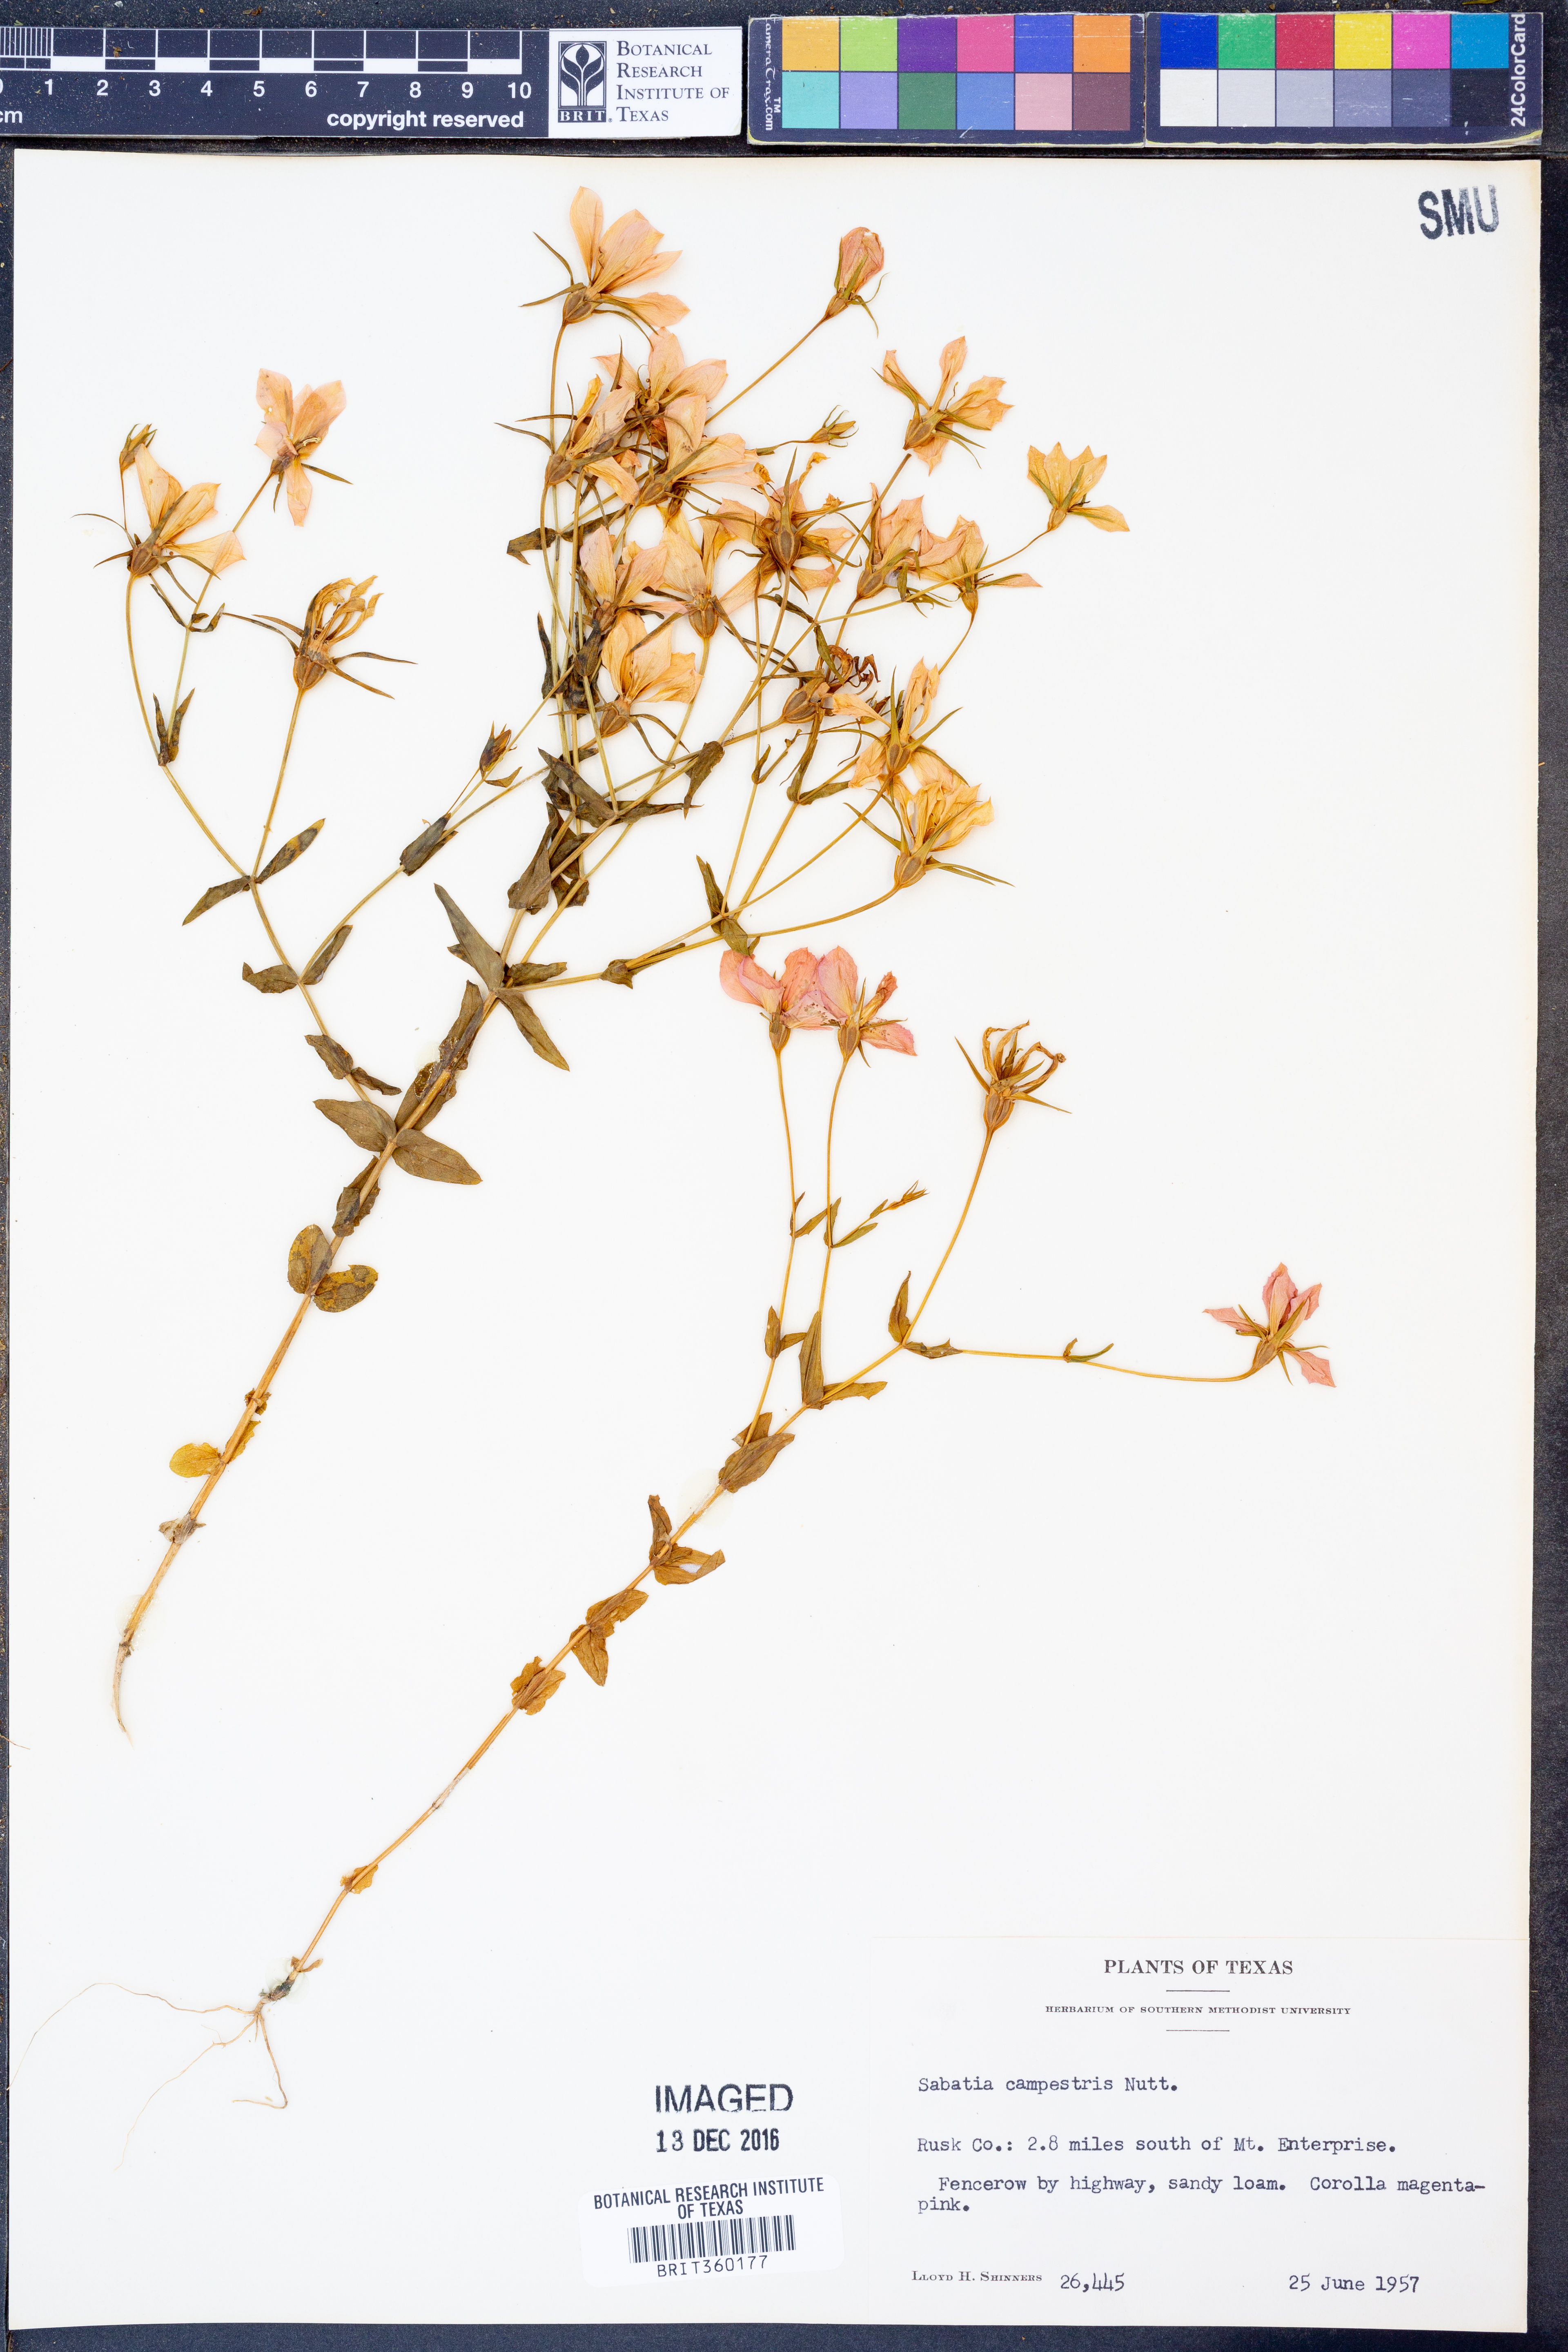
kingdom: Plantae
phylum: Tracheophyta
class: Magnoliopsida
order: Gentianales
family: Gentianaceae
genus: Sabatia
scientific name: Sabatia campestris
